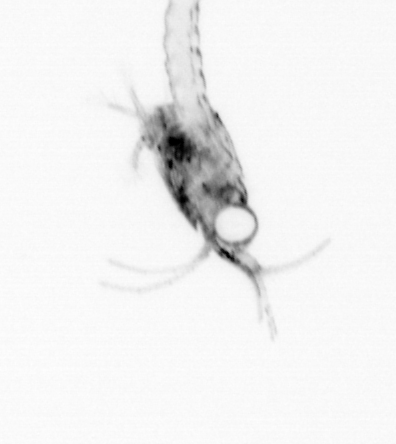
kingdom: Animalia
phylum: Arthropoda
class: Malacostraca
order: Decapoda
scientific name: Decapoda
